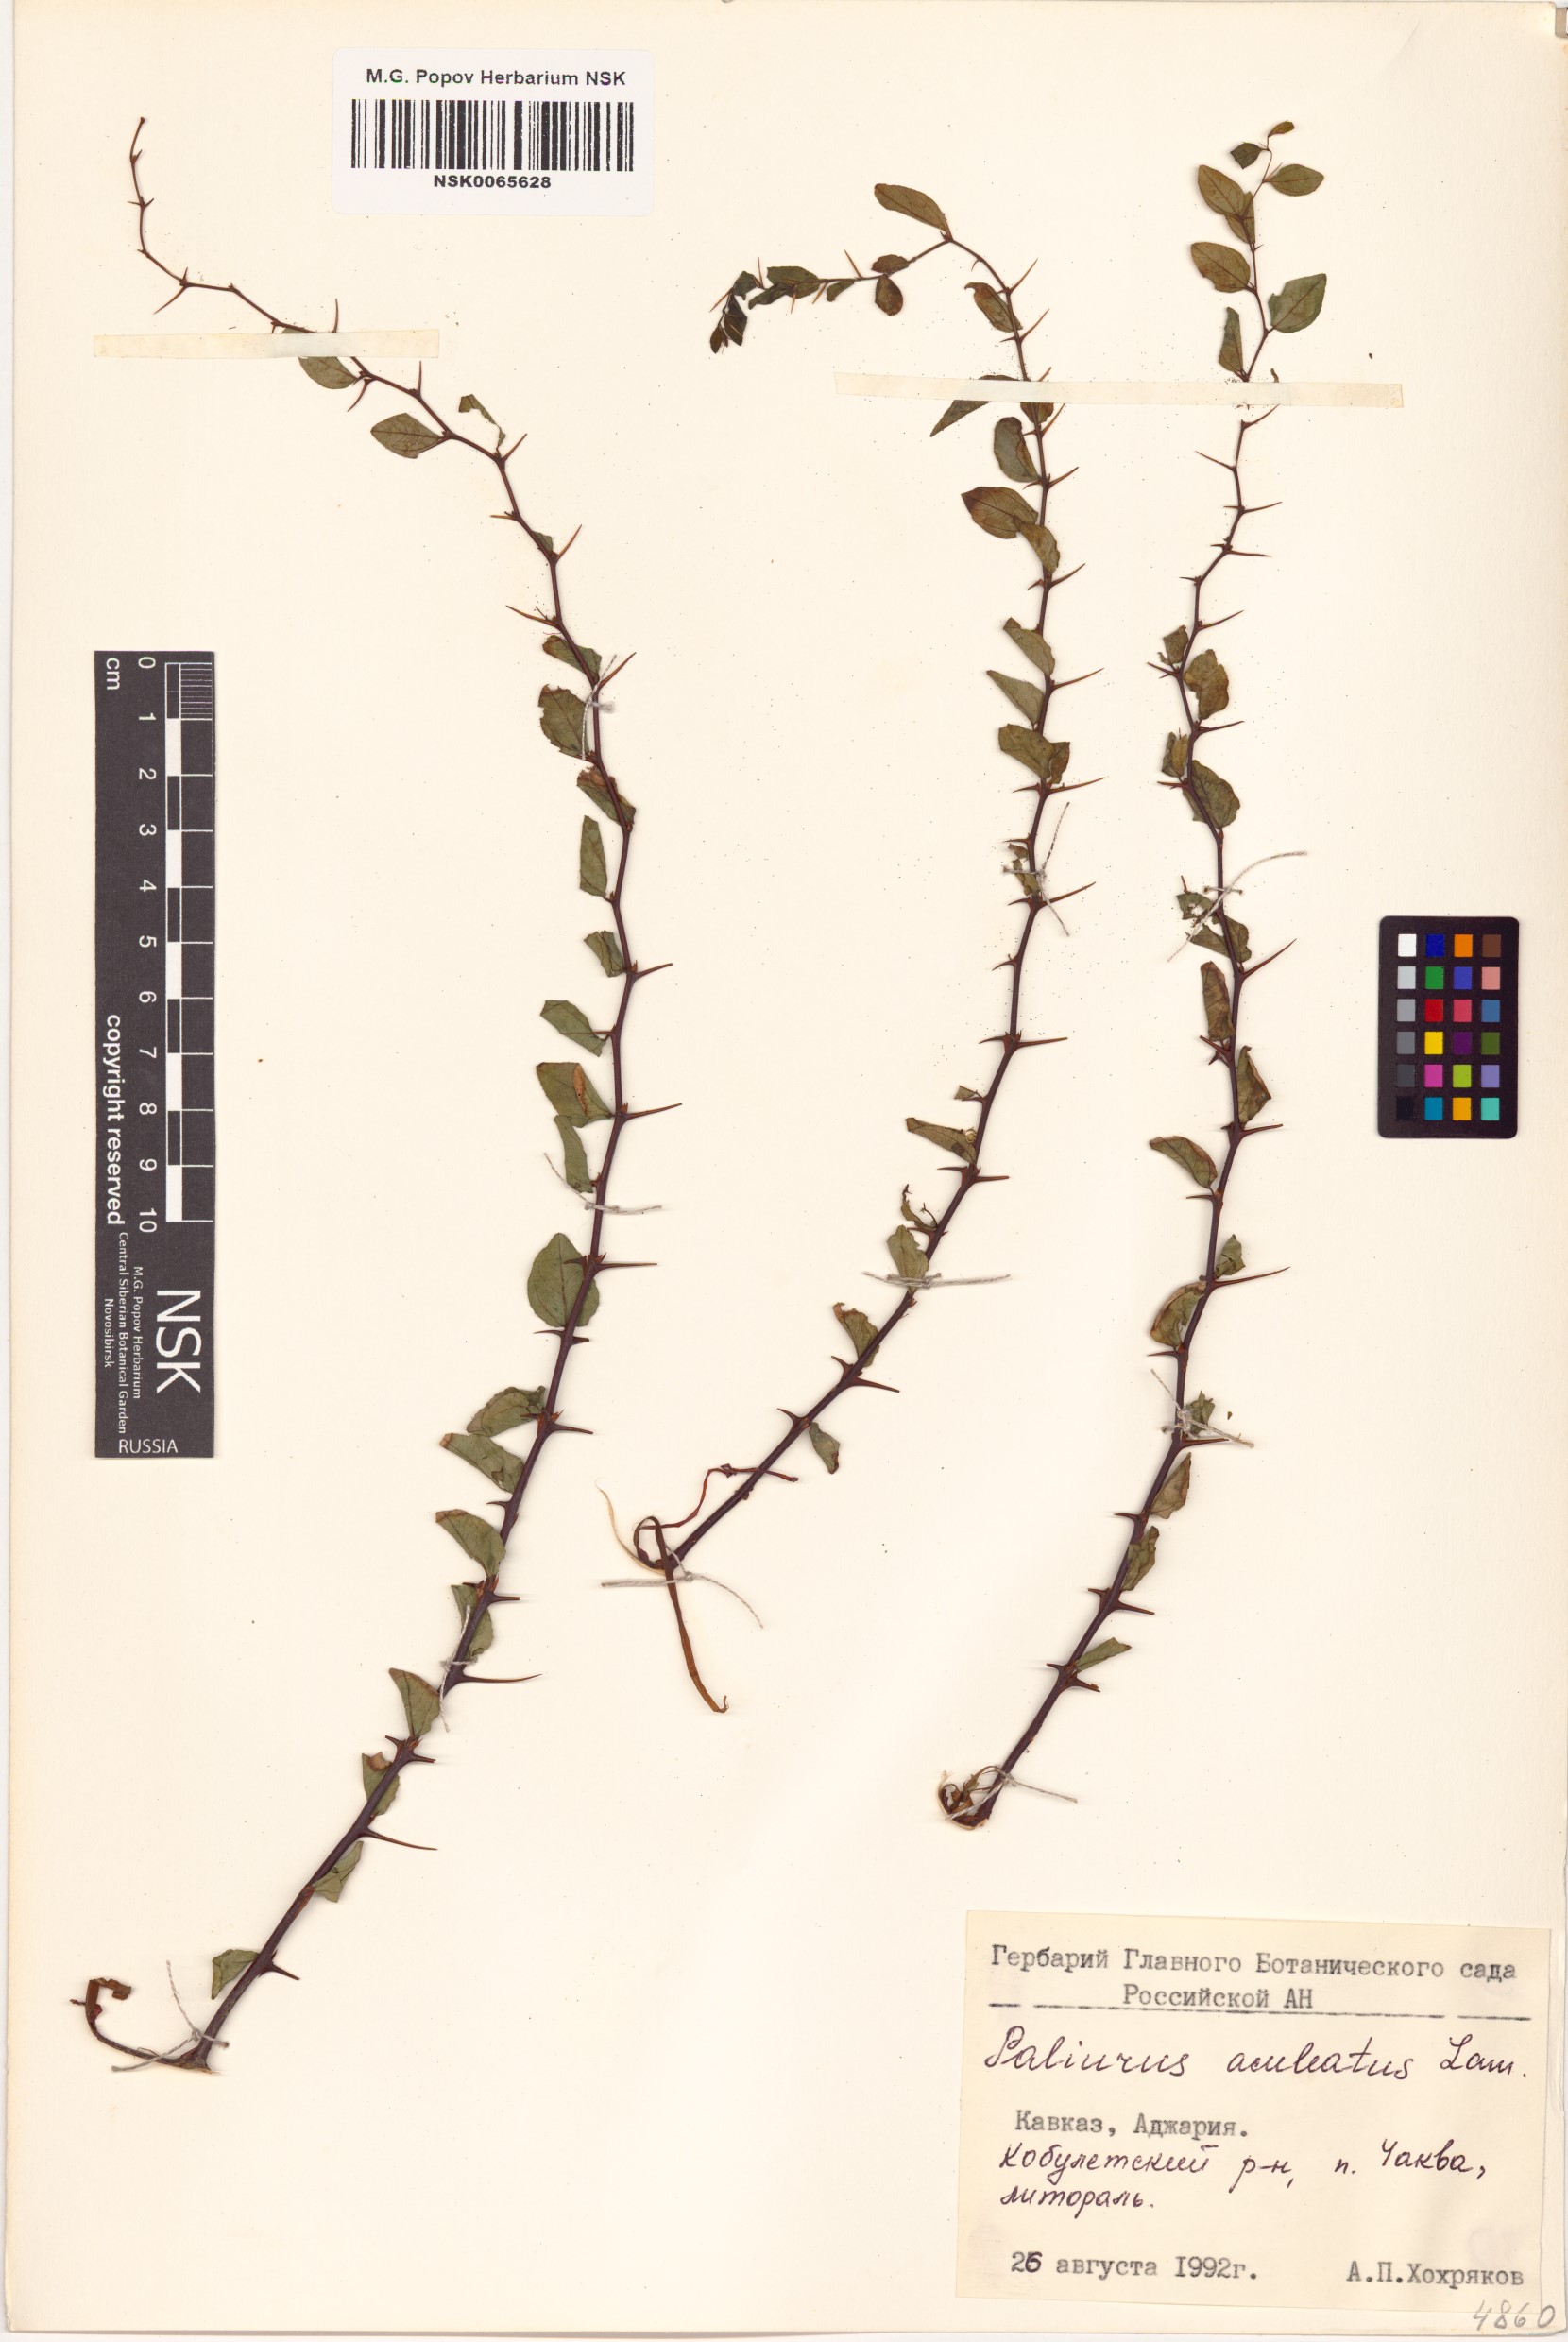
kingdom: Plantae
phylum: Tracheophyta
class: Magnoliopsida
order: Rosales
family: Rhamnaceae
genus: Paliurus
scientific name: Paliurus spina-christi
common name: Jeruselem thorn
